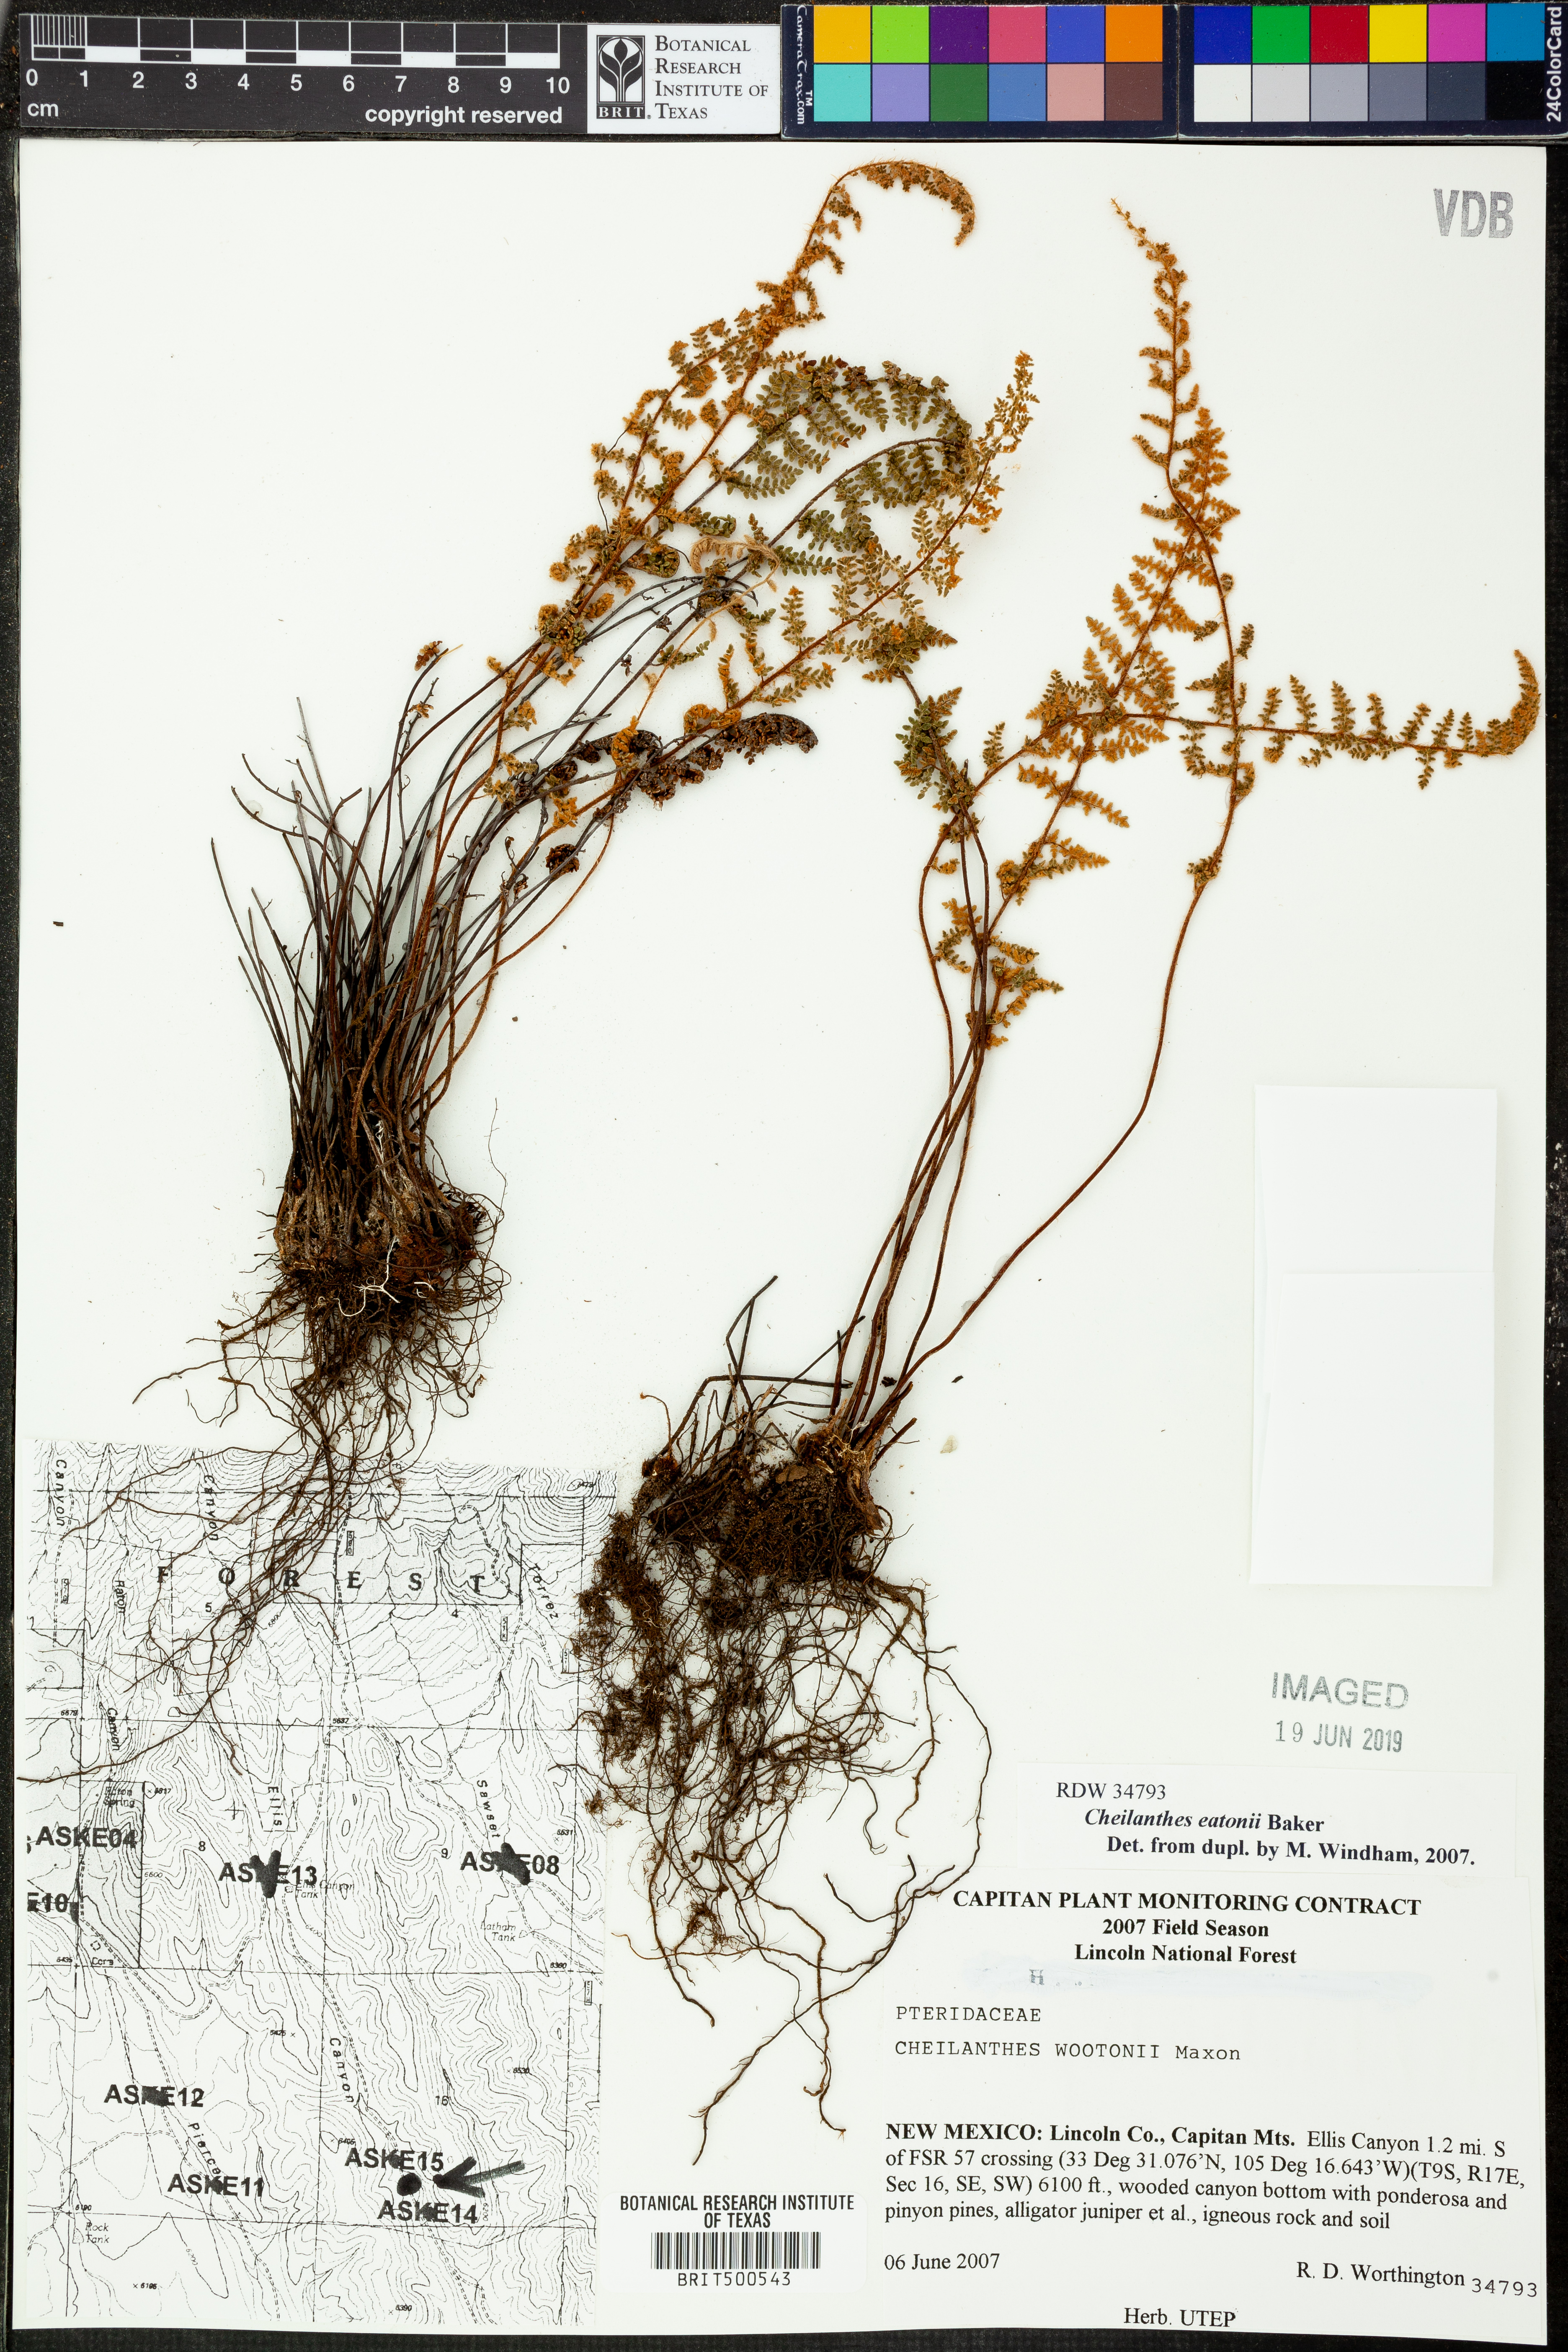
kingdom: Plantae
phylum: Tracheophyta
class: Polypodiopsida
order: Polypodiales
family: Pteridaceae
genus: Myriopteris
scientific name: Myriopteris rufa
